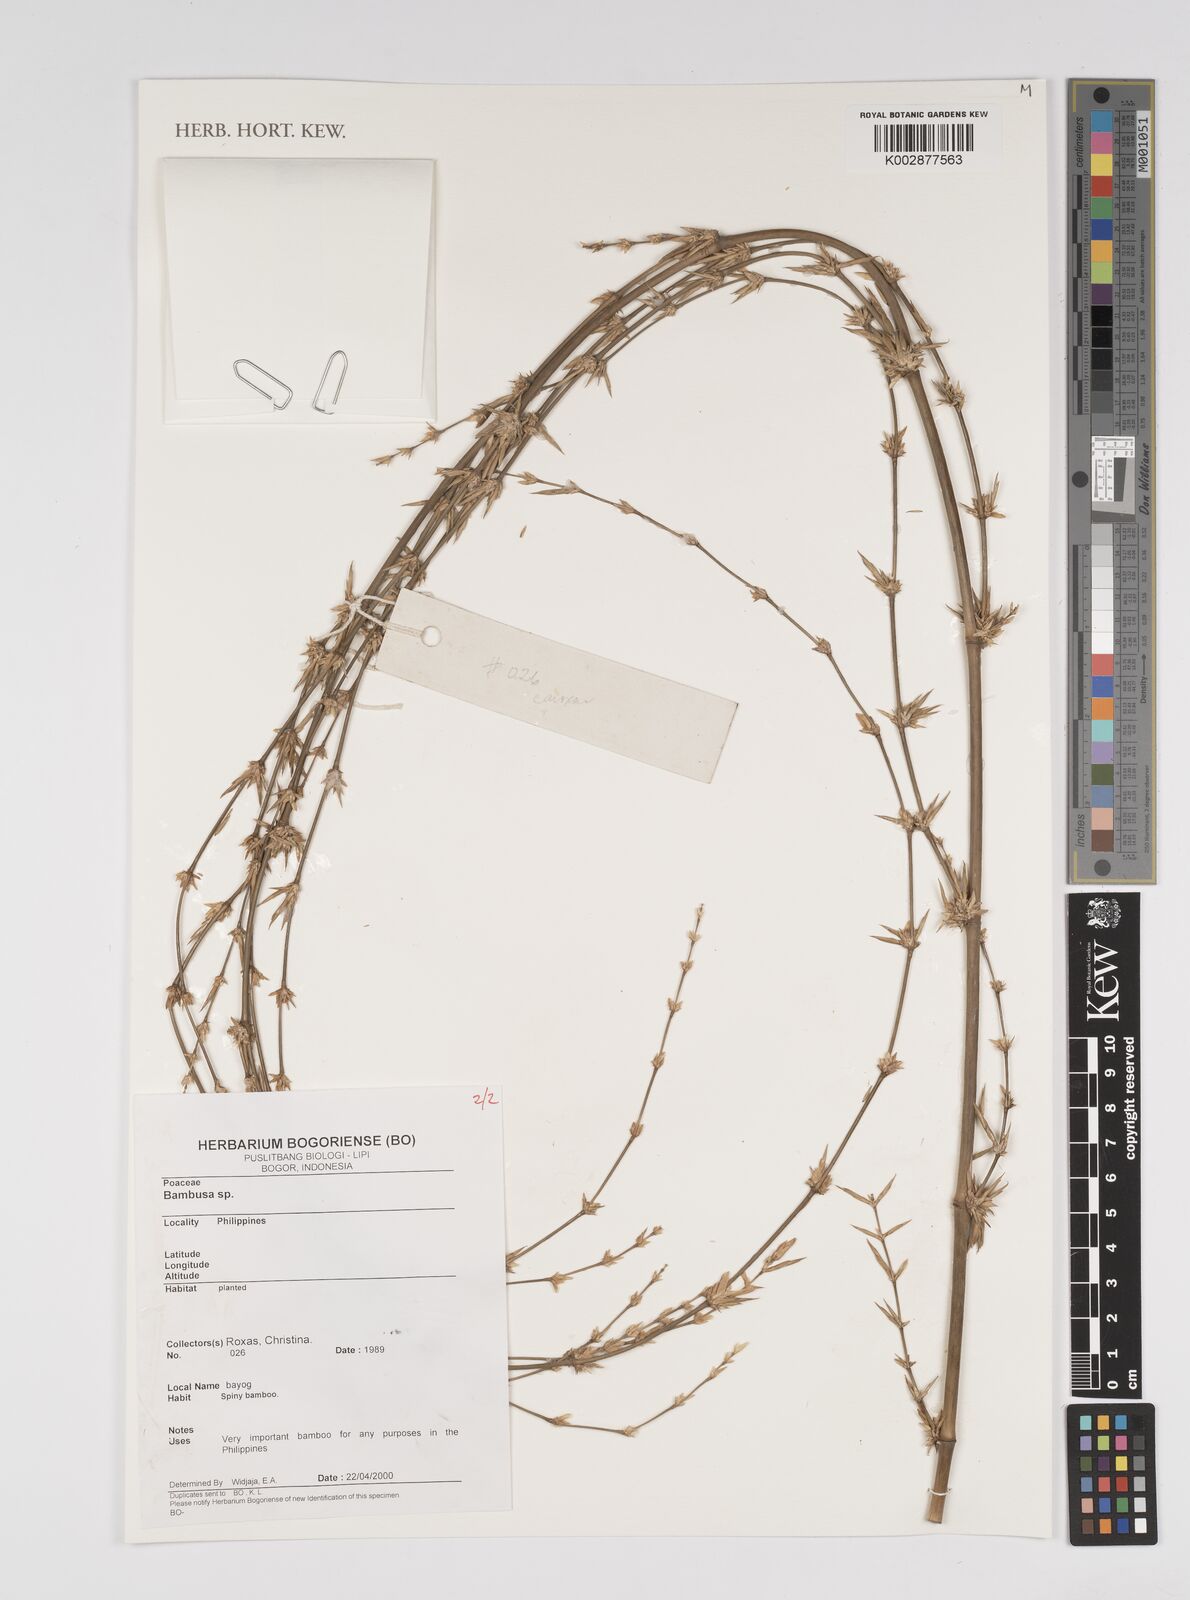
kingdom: Plantae
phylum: Tracheophyta
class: Liliopsida
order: Poales
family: Poaceae
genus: Bambusa
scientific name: Bambusa
